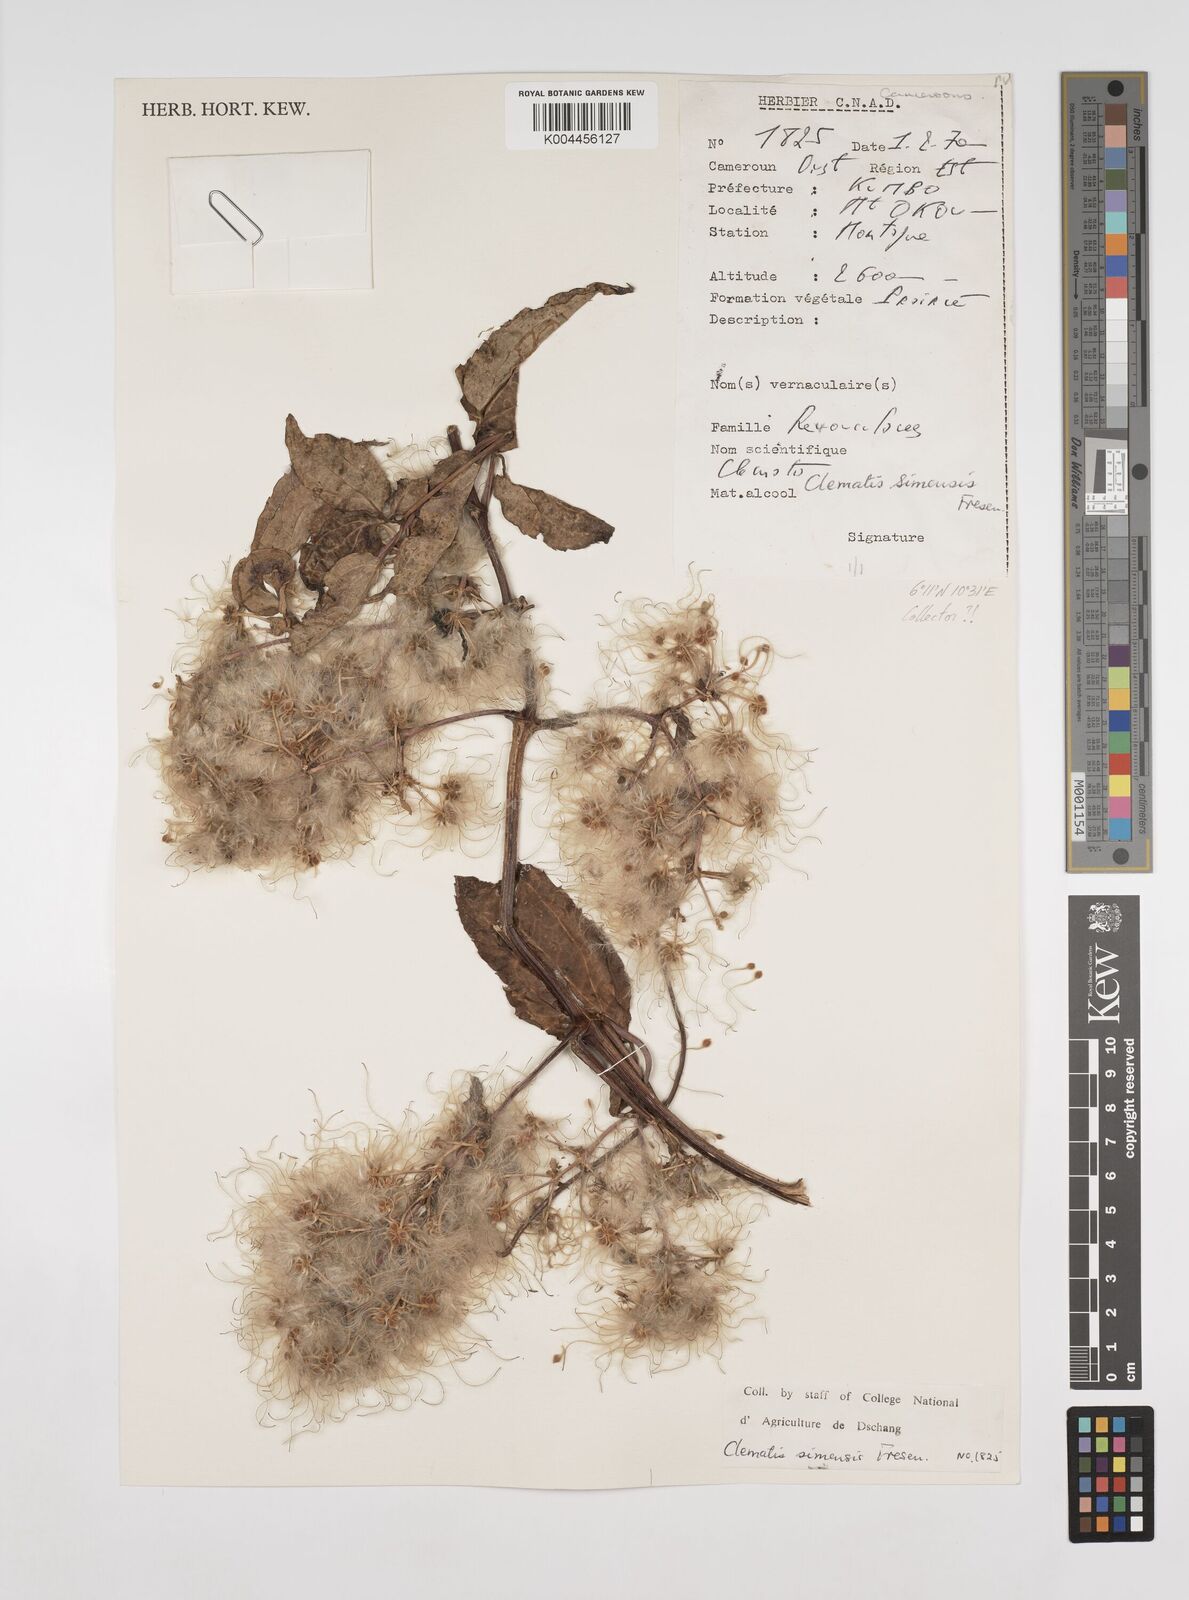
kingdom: Plantae
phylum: Tracheophyta
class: Magnoliopsida
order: Ranunculales
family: Ranunculaceae
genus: Clematis
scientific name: Clematis simensis
